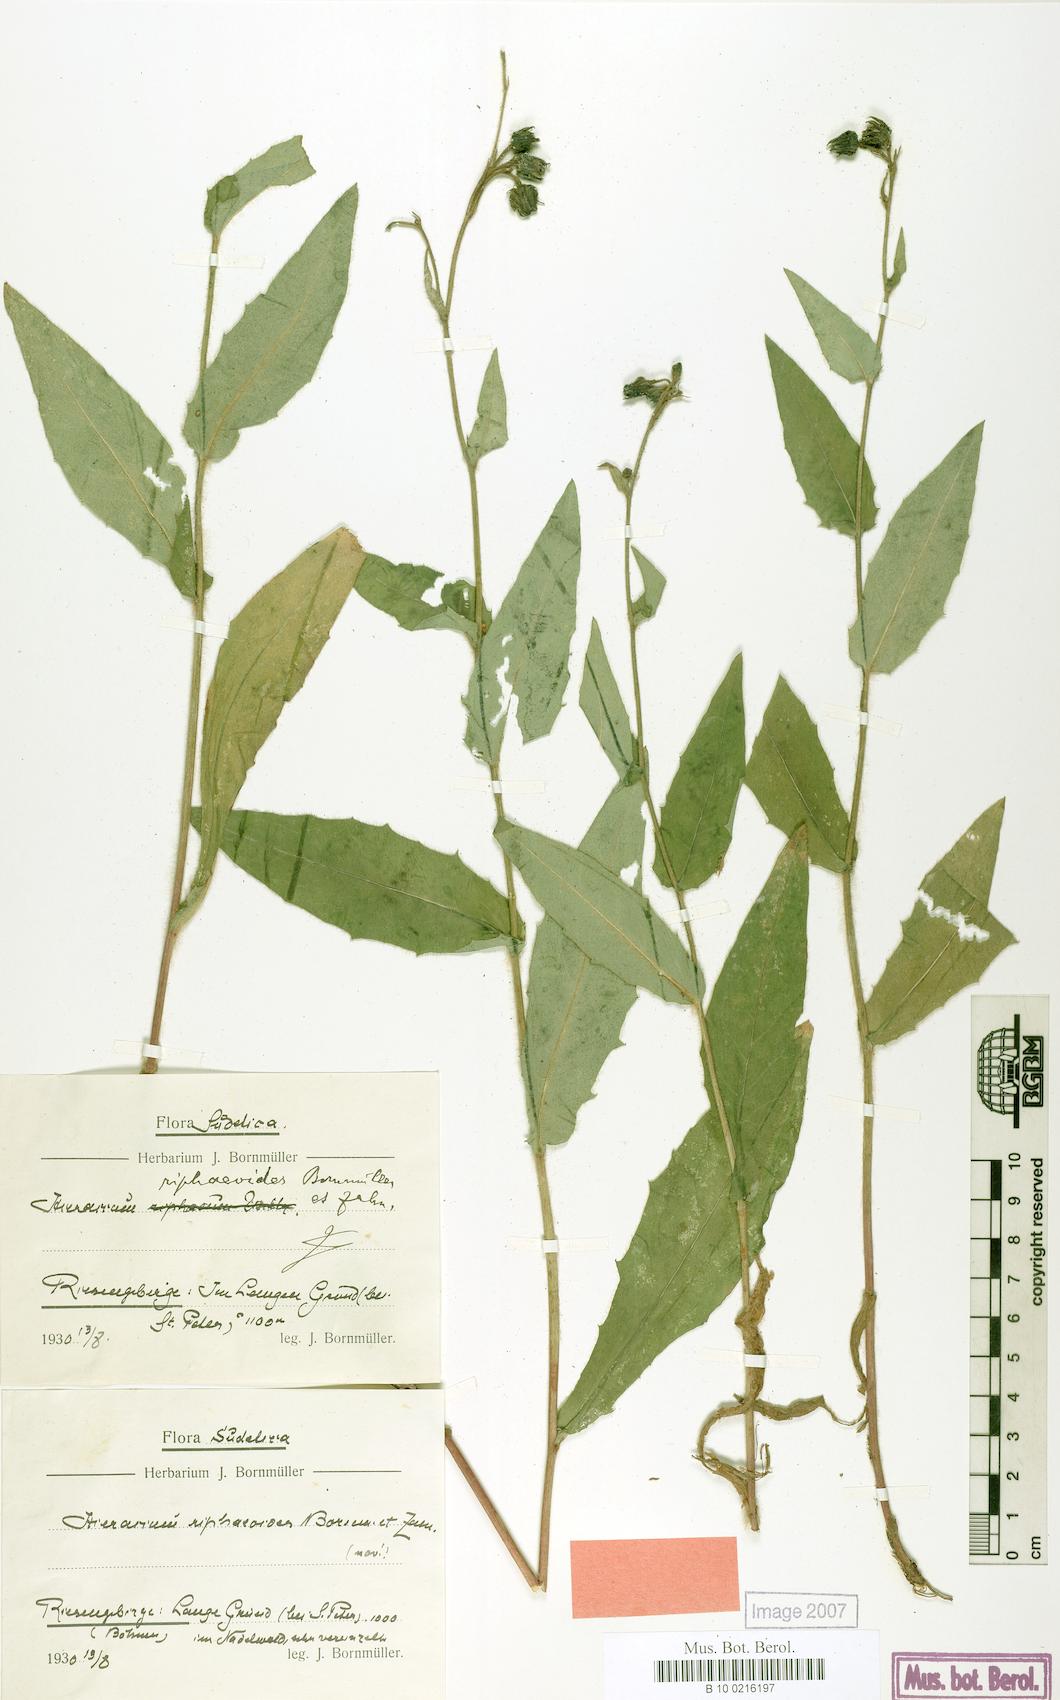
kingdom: Plantae
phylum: Tracheophyta
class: Magnoliopsida
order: Asterales
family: Asteraceae
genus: Hieracium
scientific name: Hieracium riphaeoides
